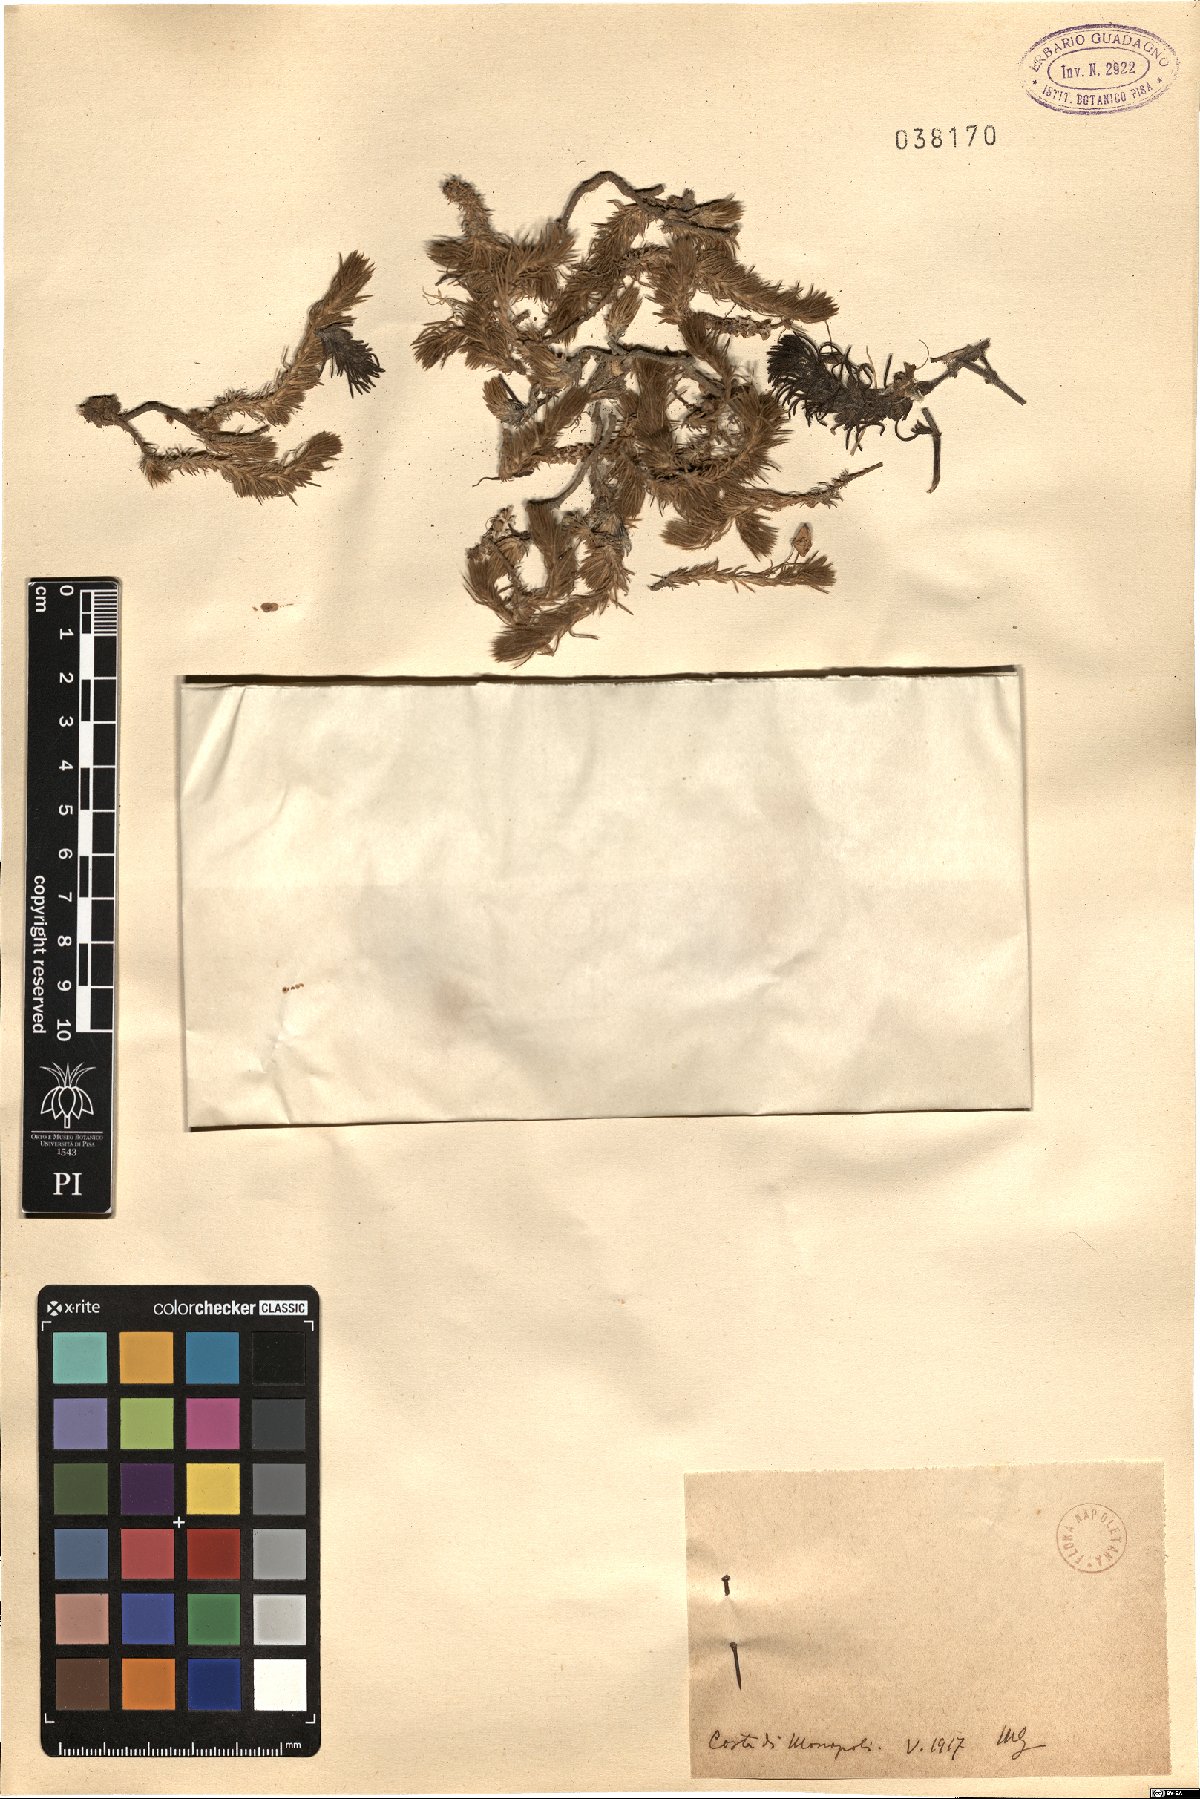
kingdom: Plantae
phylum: Tracheophyta
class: Magnoliopsida
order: Caryophyllales
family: Amaranthaceae
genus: Camphorosma
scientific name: Camphorosma
